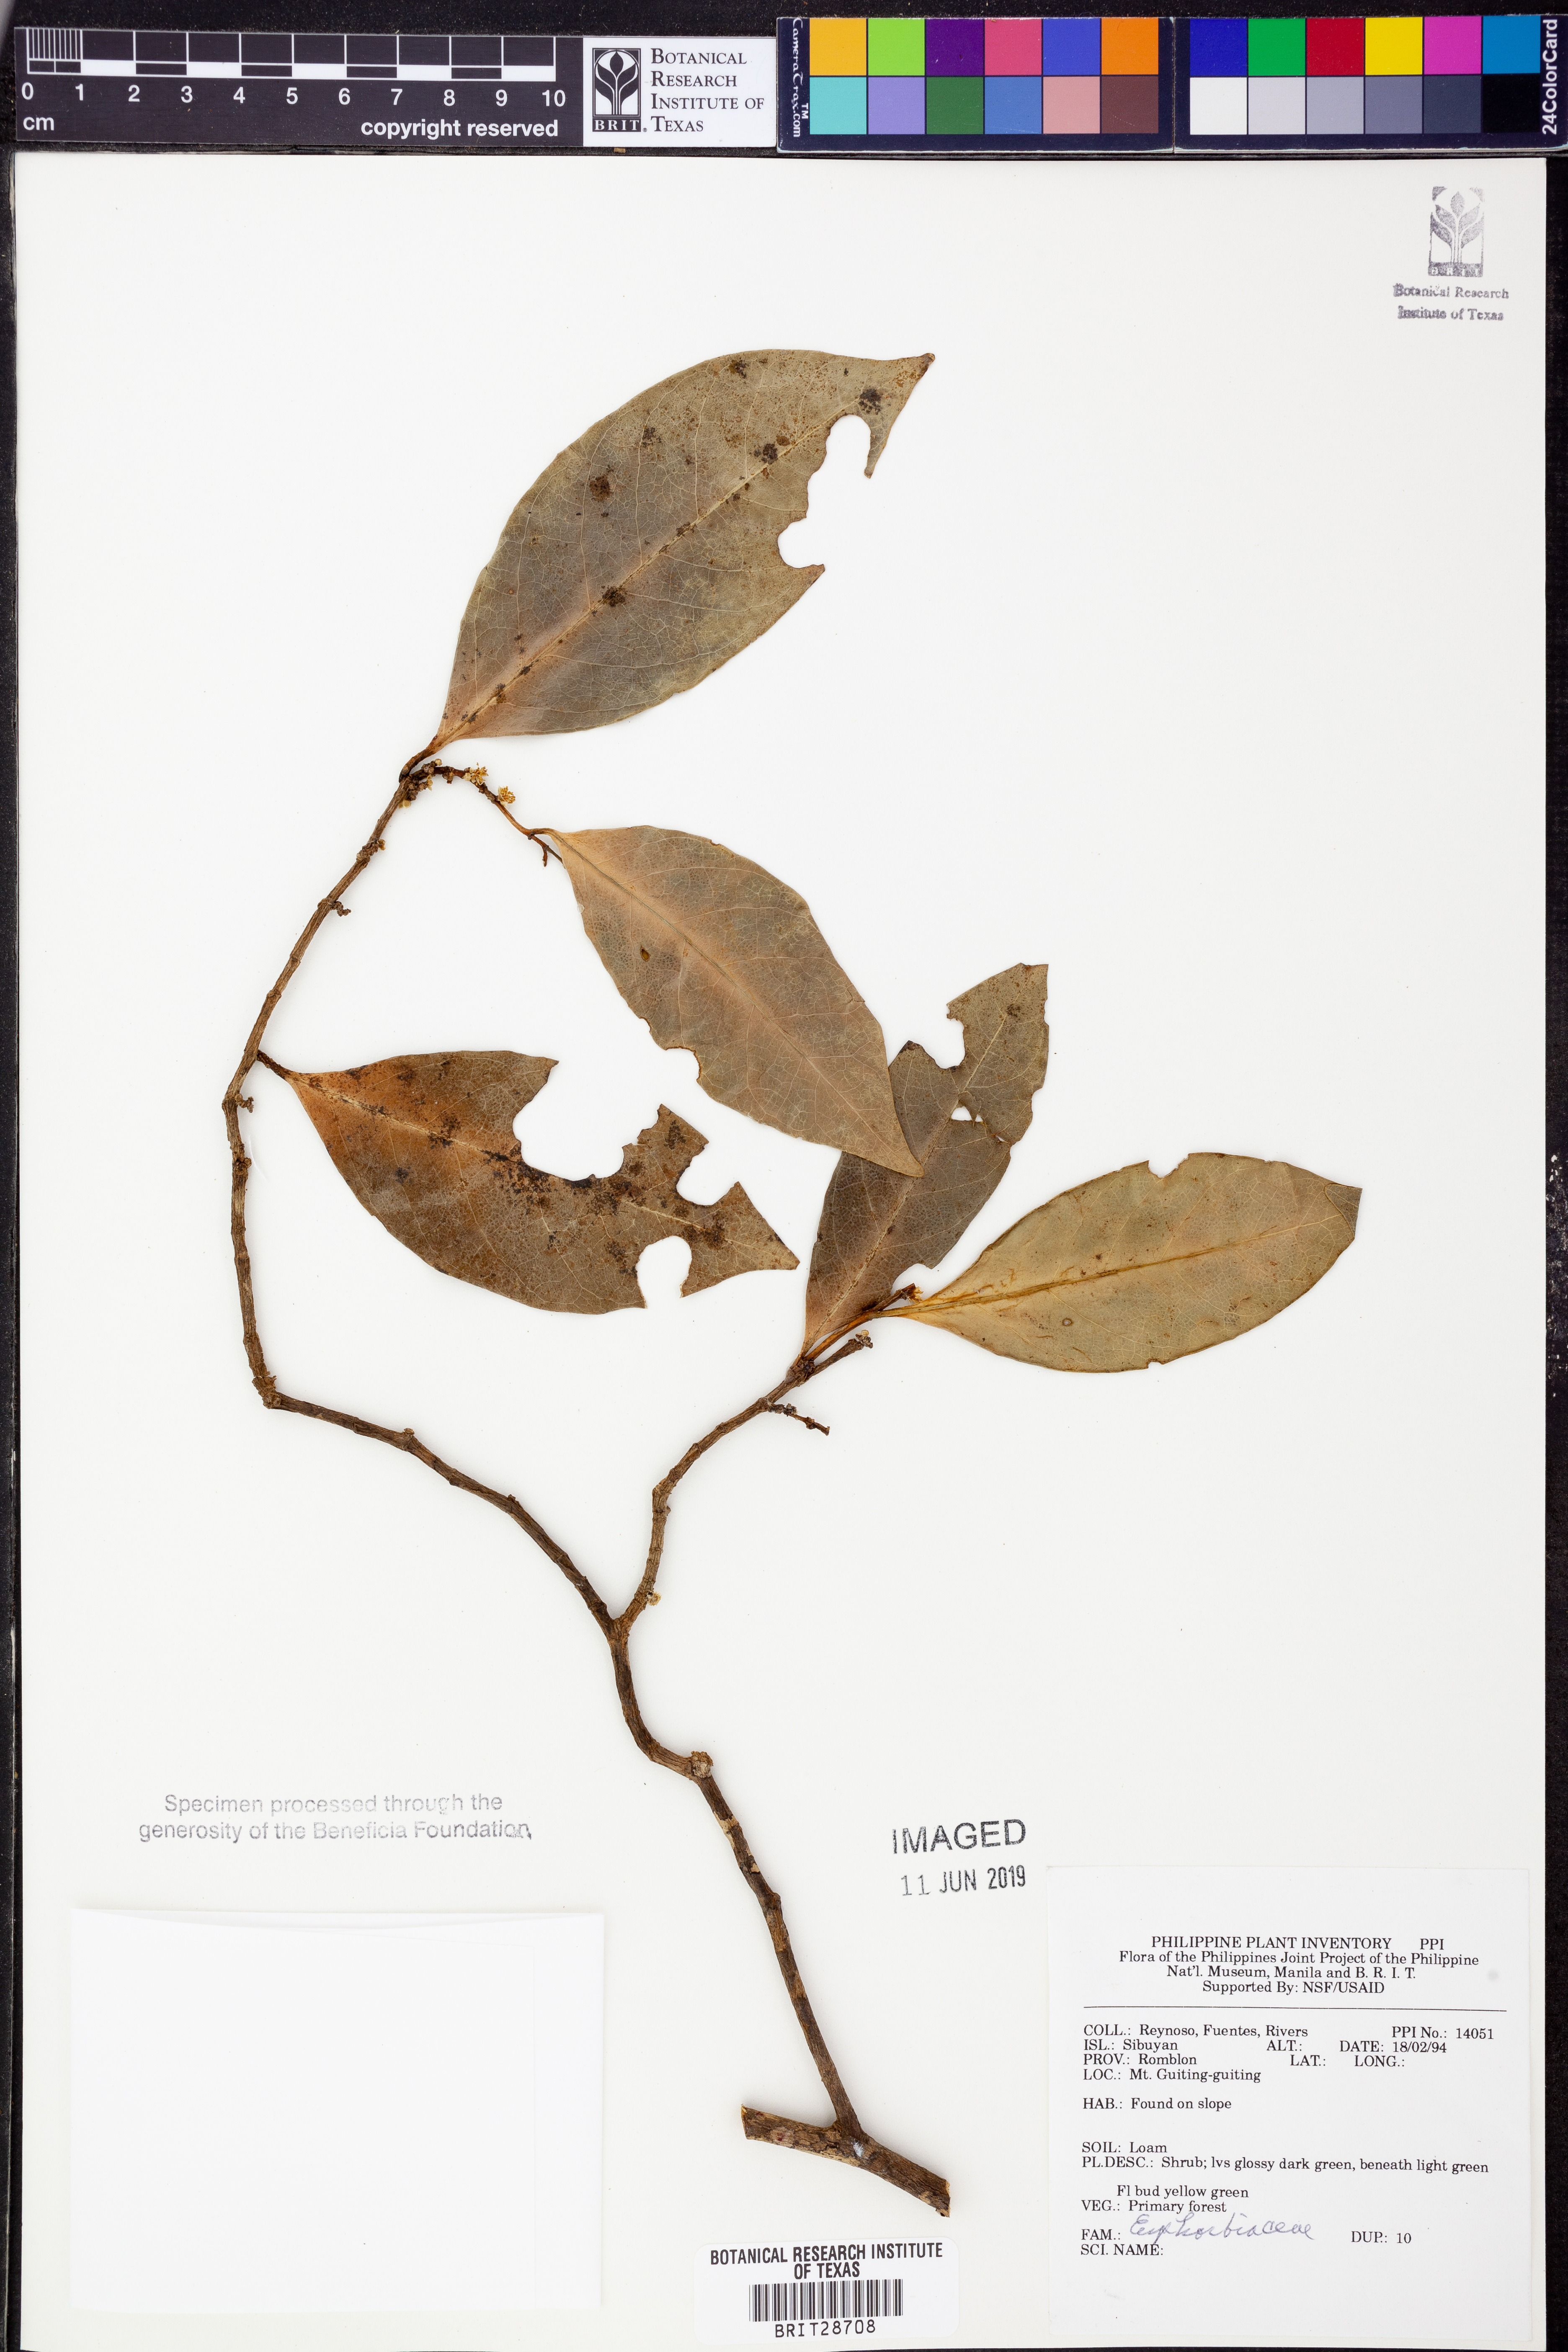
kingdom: Plantae
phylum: Tracheophyta
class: Magnoliopsida
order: Malpighiales
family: Euphorbiaceae
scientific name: Euphorbiaceae
